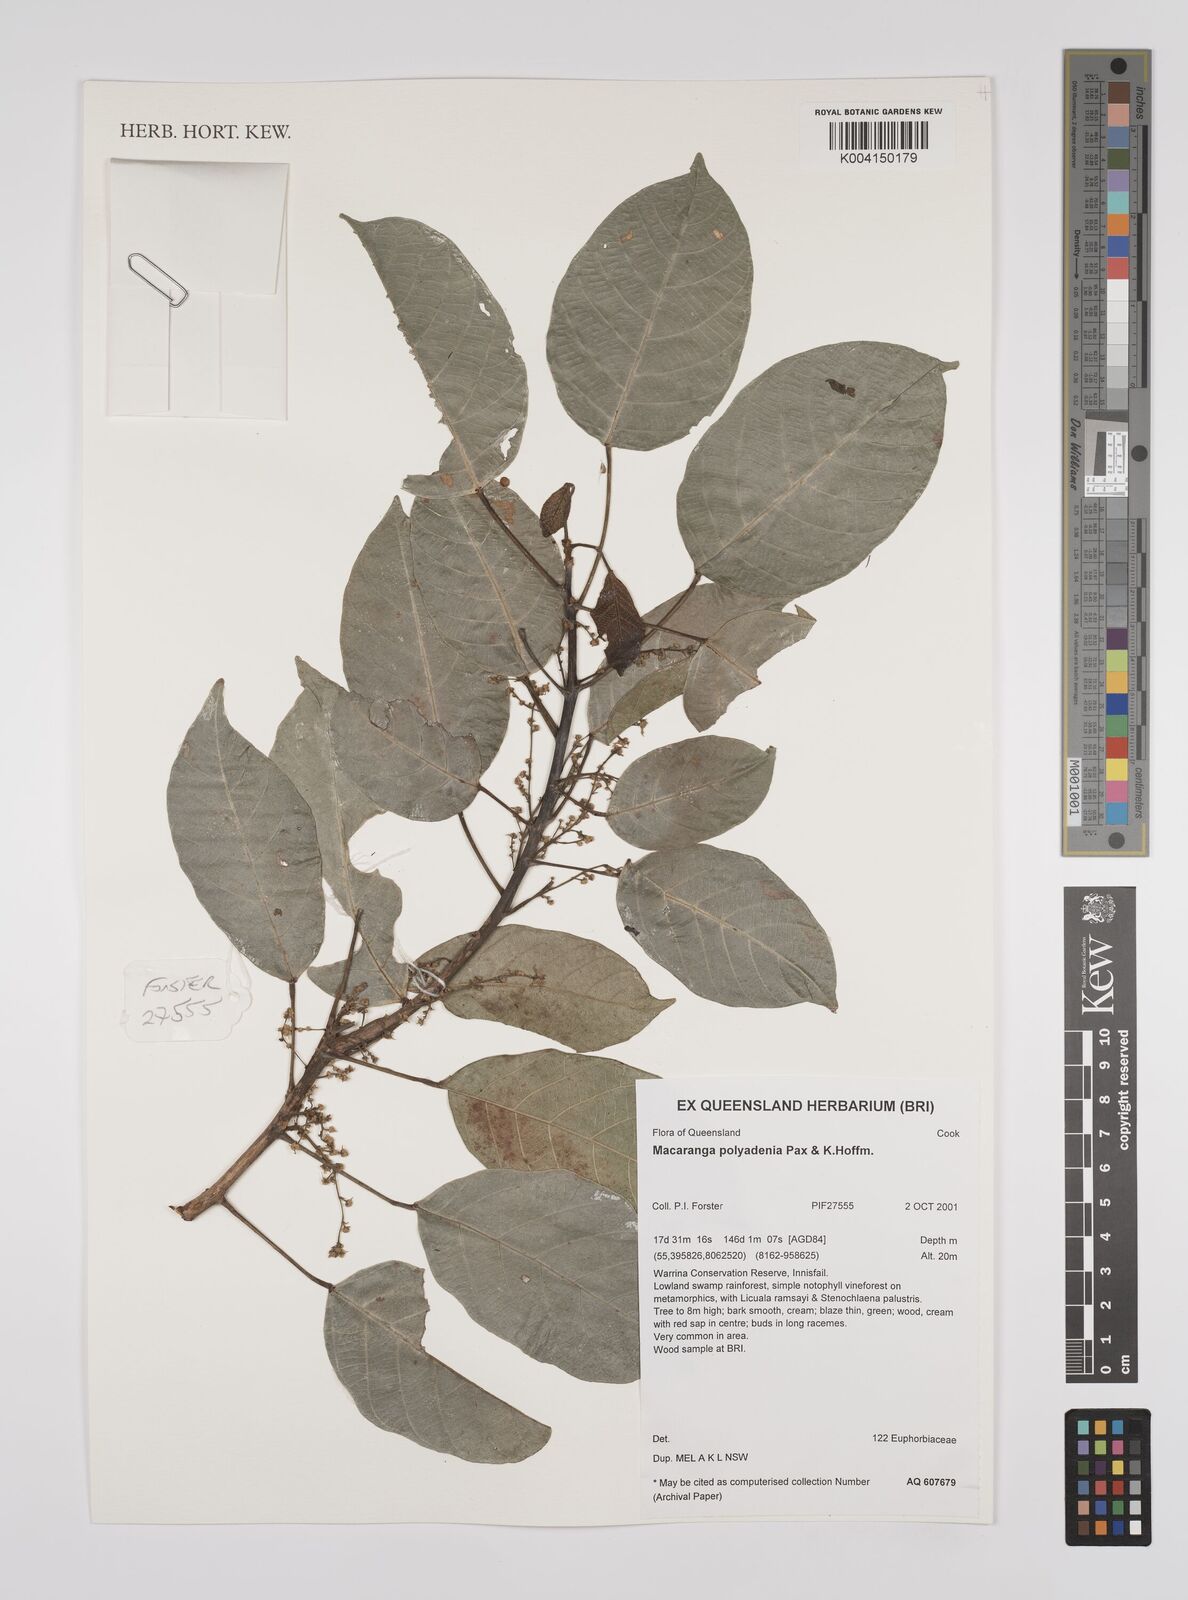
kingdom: Plantae
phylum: Tracheophyta
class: Magnoliopsida
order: Malpighiales
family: Euphorbiaceae
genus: Macaranga
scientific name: Macaranga polyadenia
